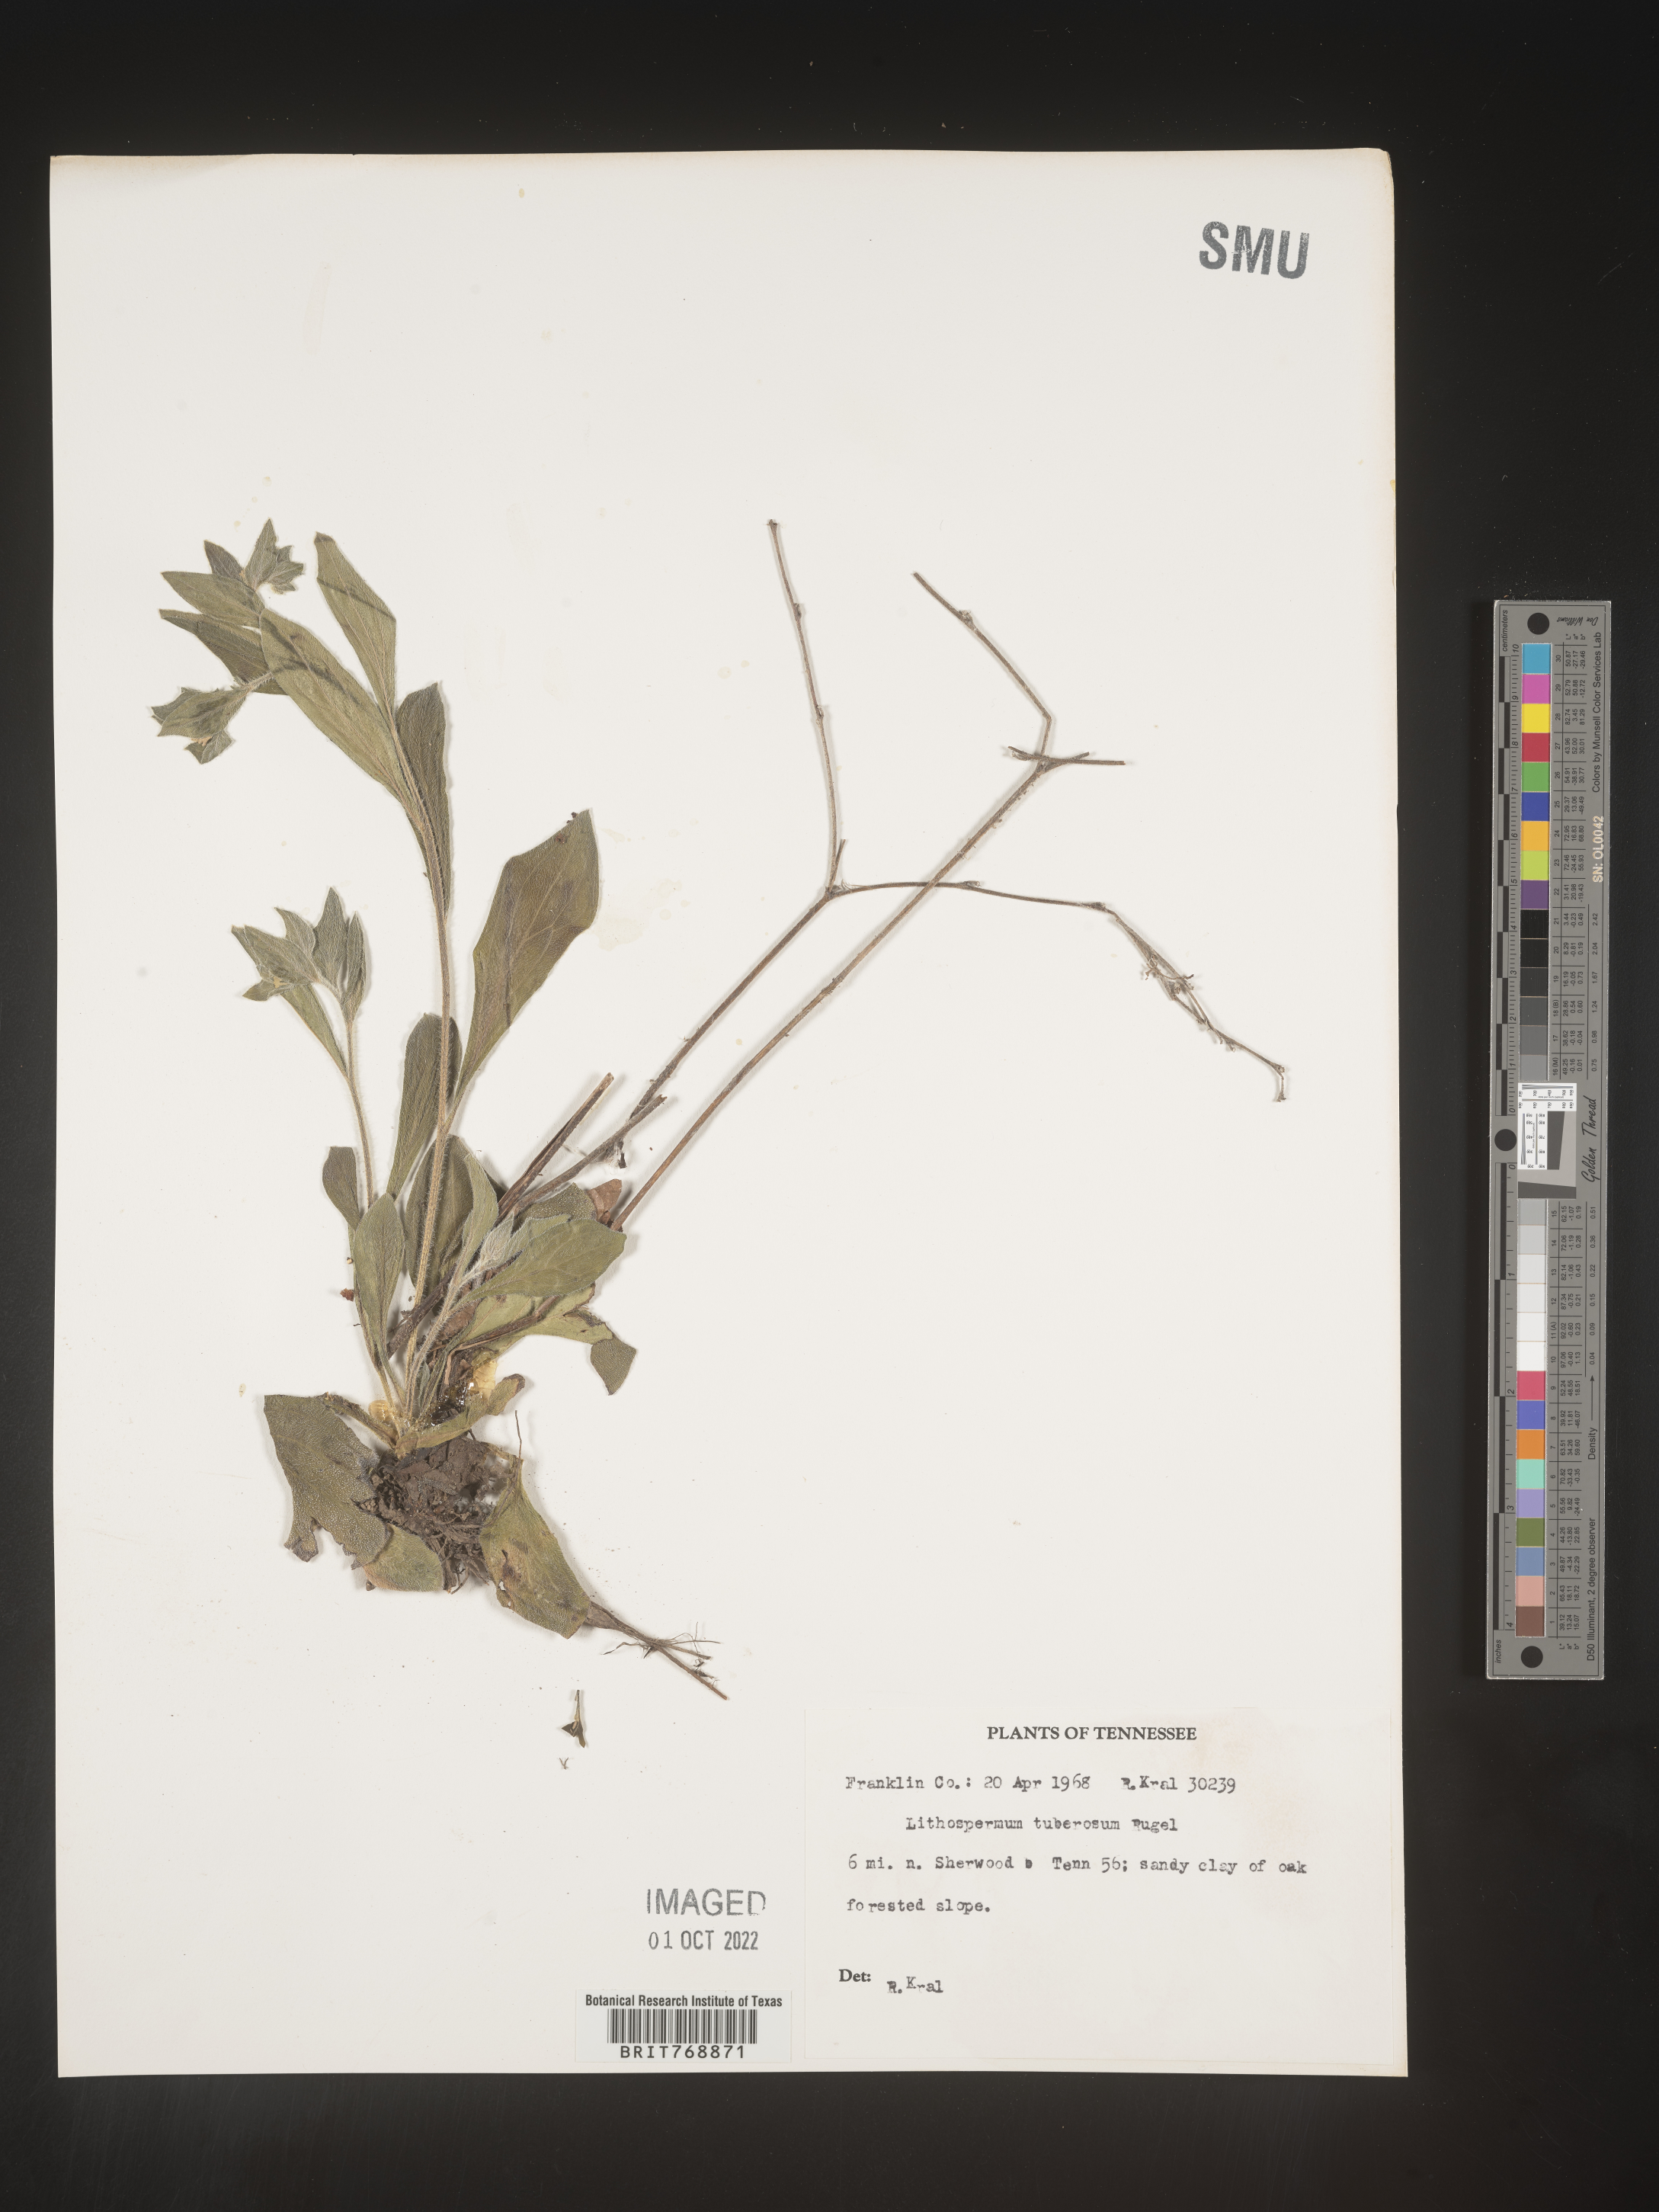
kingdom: Plantae
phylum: Tracheophyta
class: Magnoliopsida
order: Boraginales
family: Boraginaceae
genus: Lithospermum
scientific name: Lithospermum
